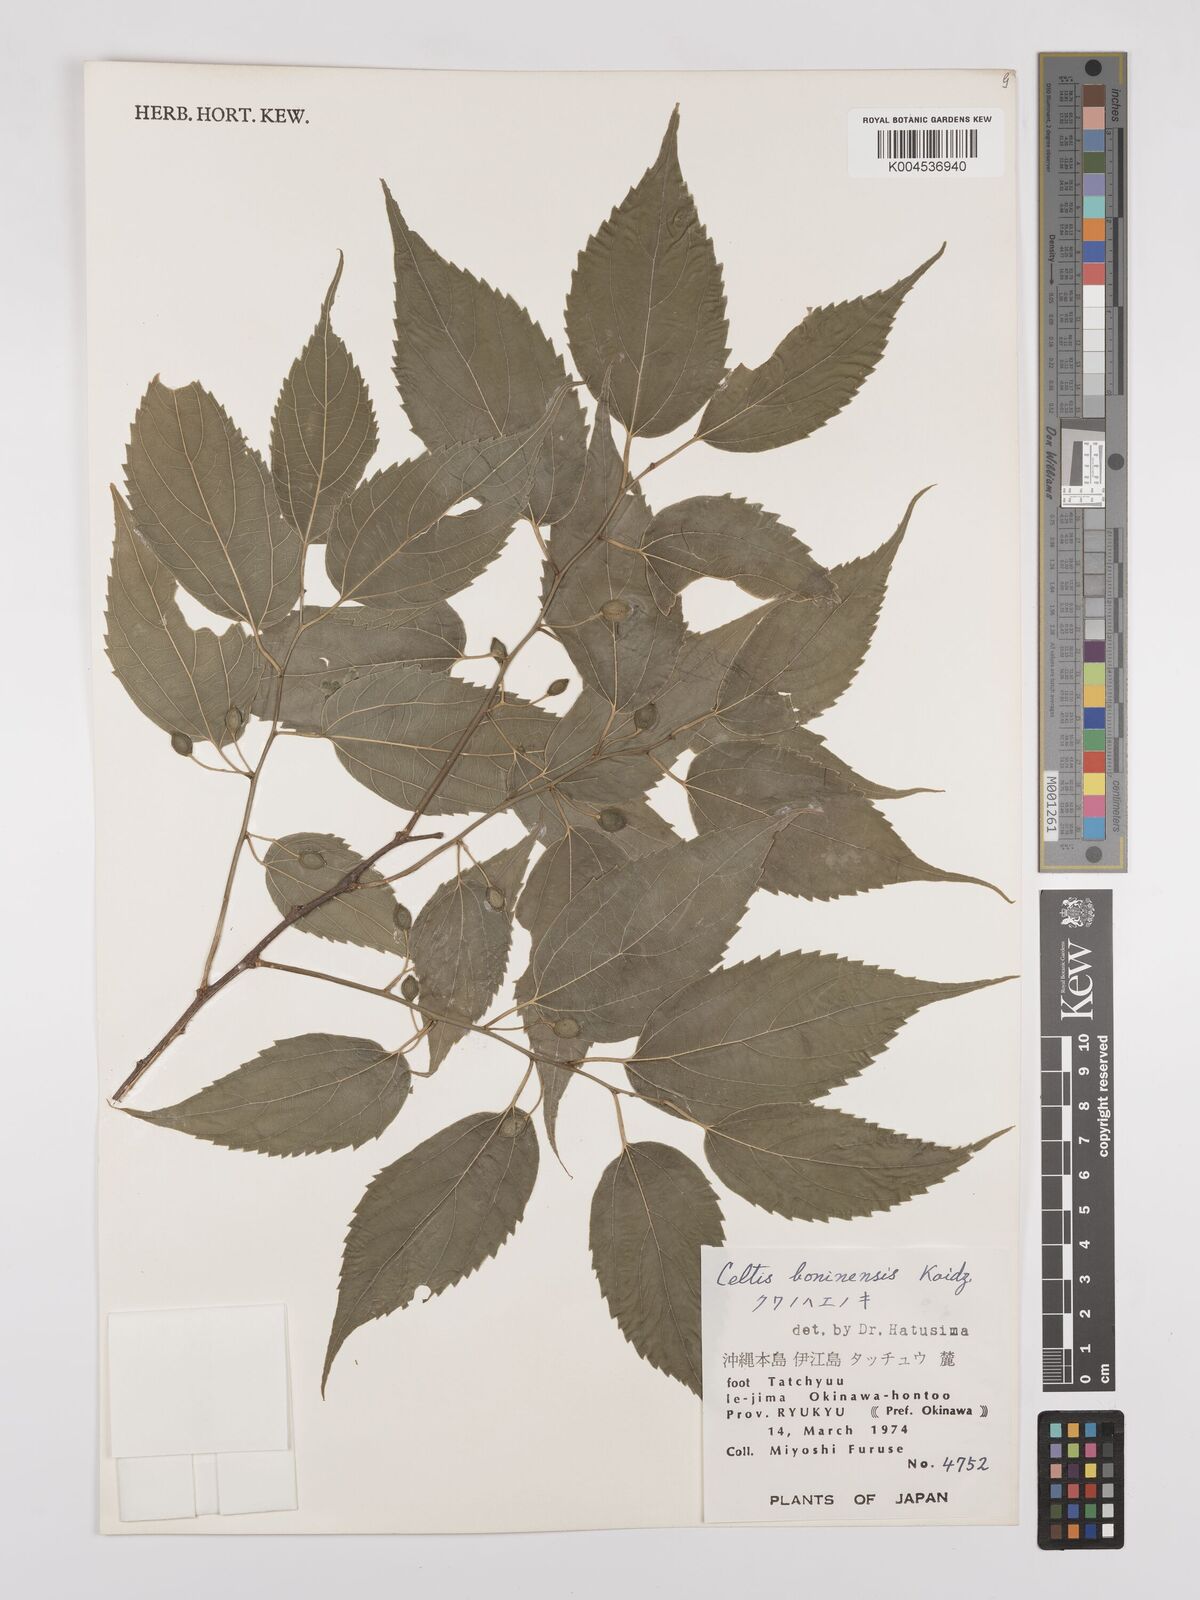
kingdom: Plantae
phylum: Tracheophyta
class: Magnoliopsida
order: Rosales
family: Cannabaceae
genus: Celtis
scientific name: Celtis boninensis
